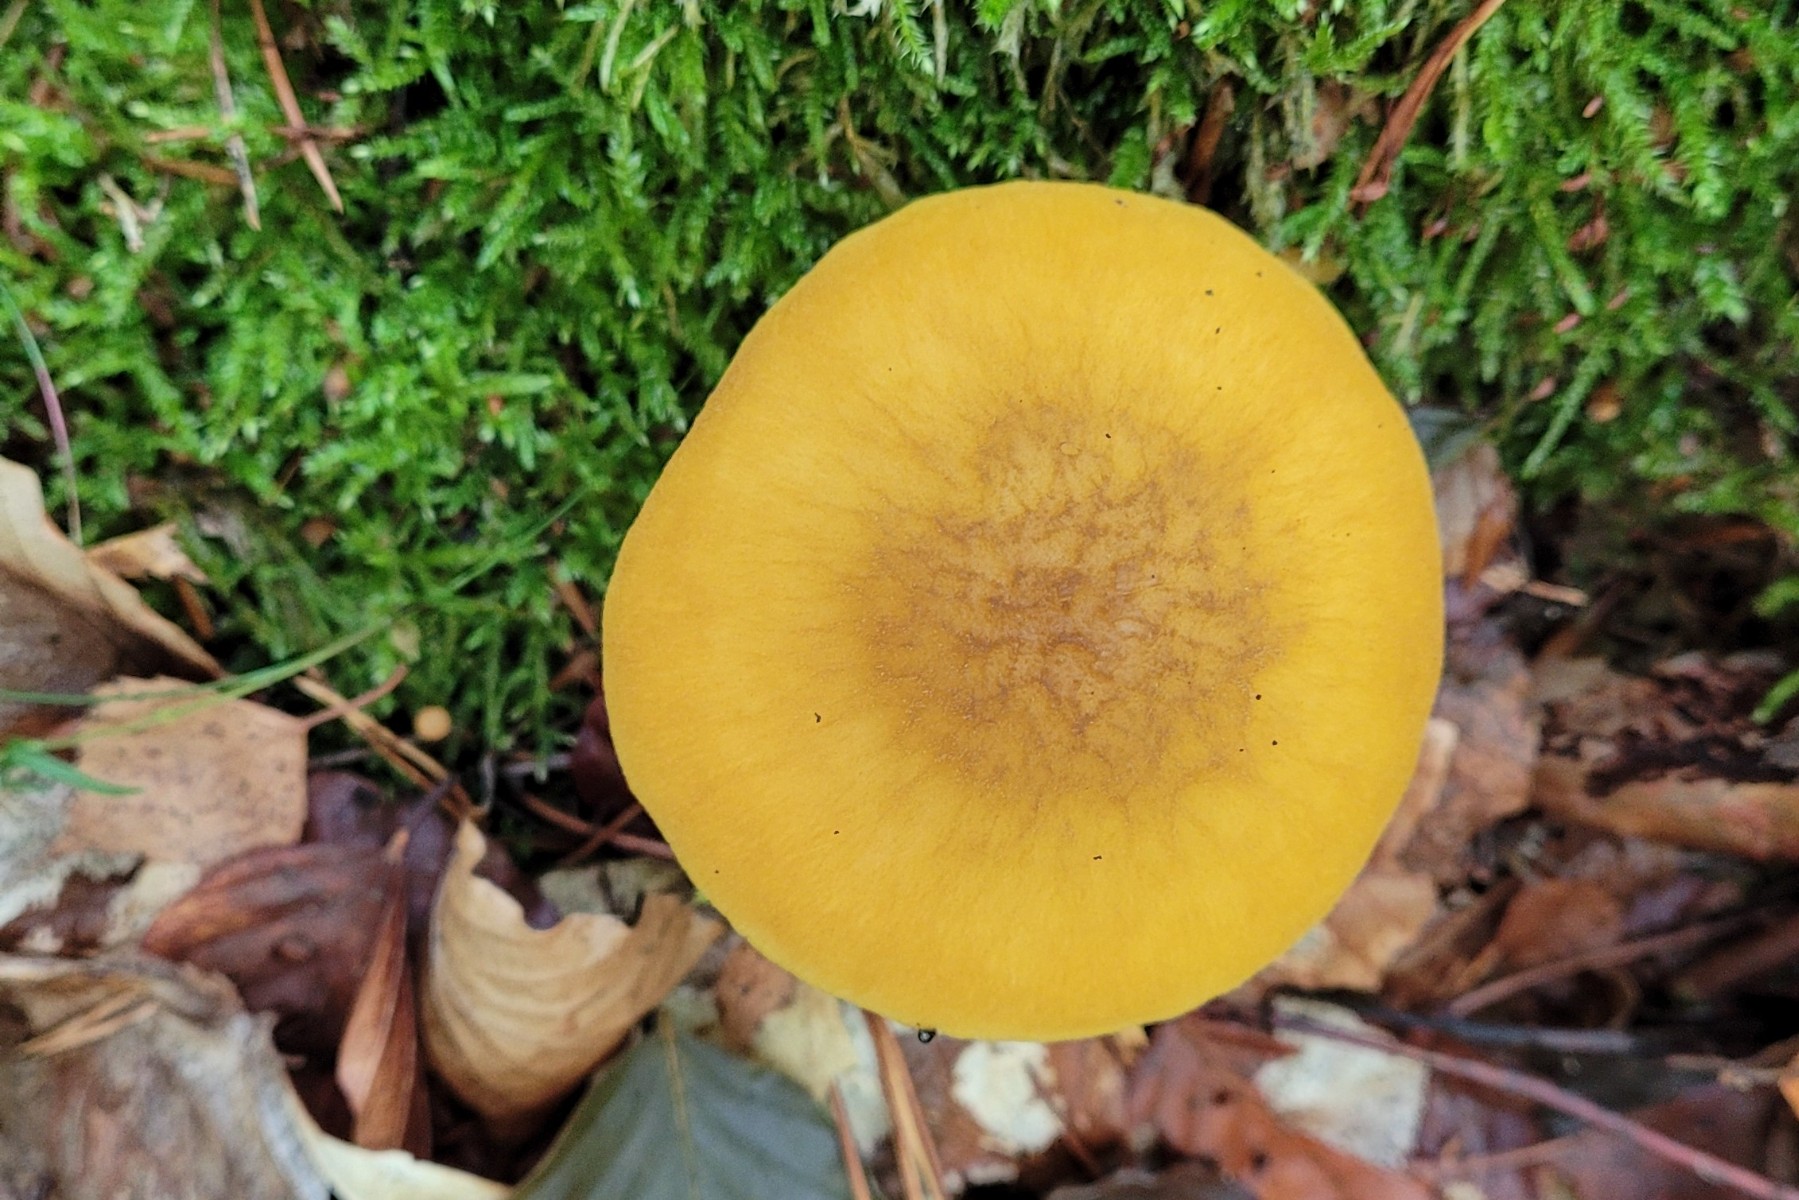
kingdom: Fungi
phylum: Basidiomycota
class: Agaricomycetes
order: Agaricales
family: Pluteaceae
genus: Pluteus
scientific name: Pluteus leoninus
